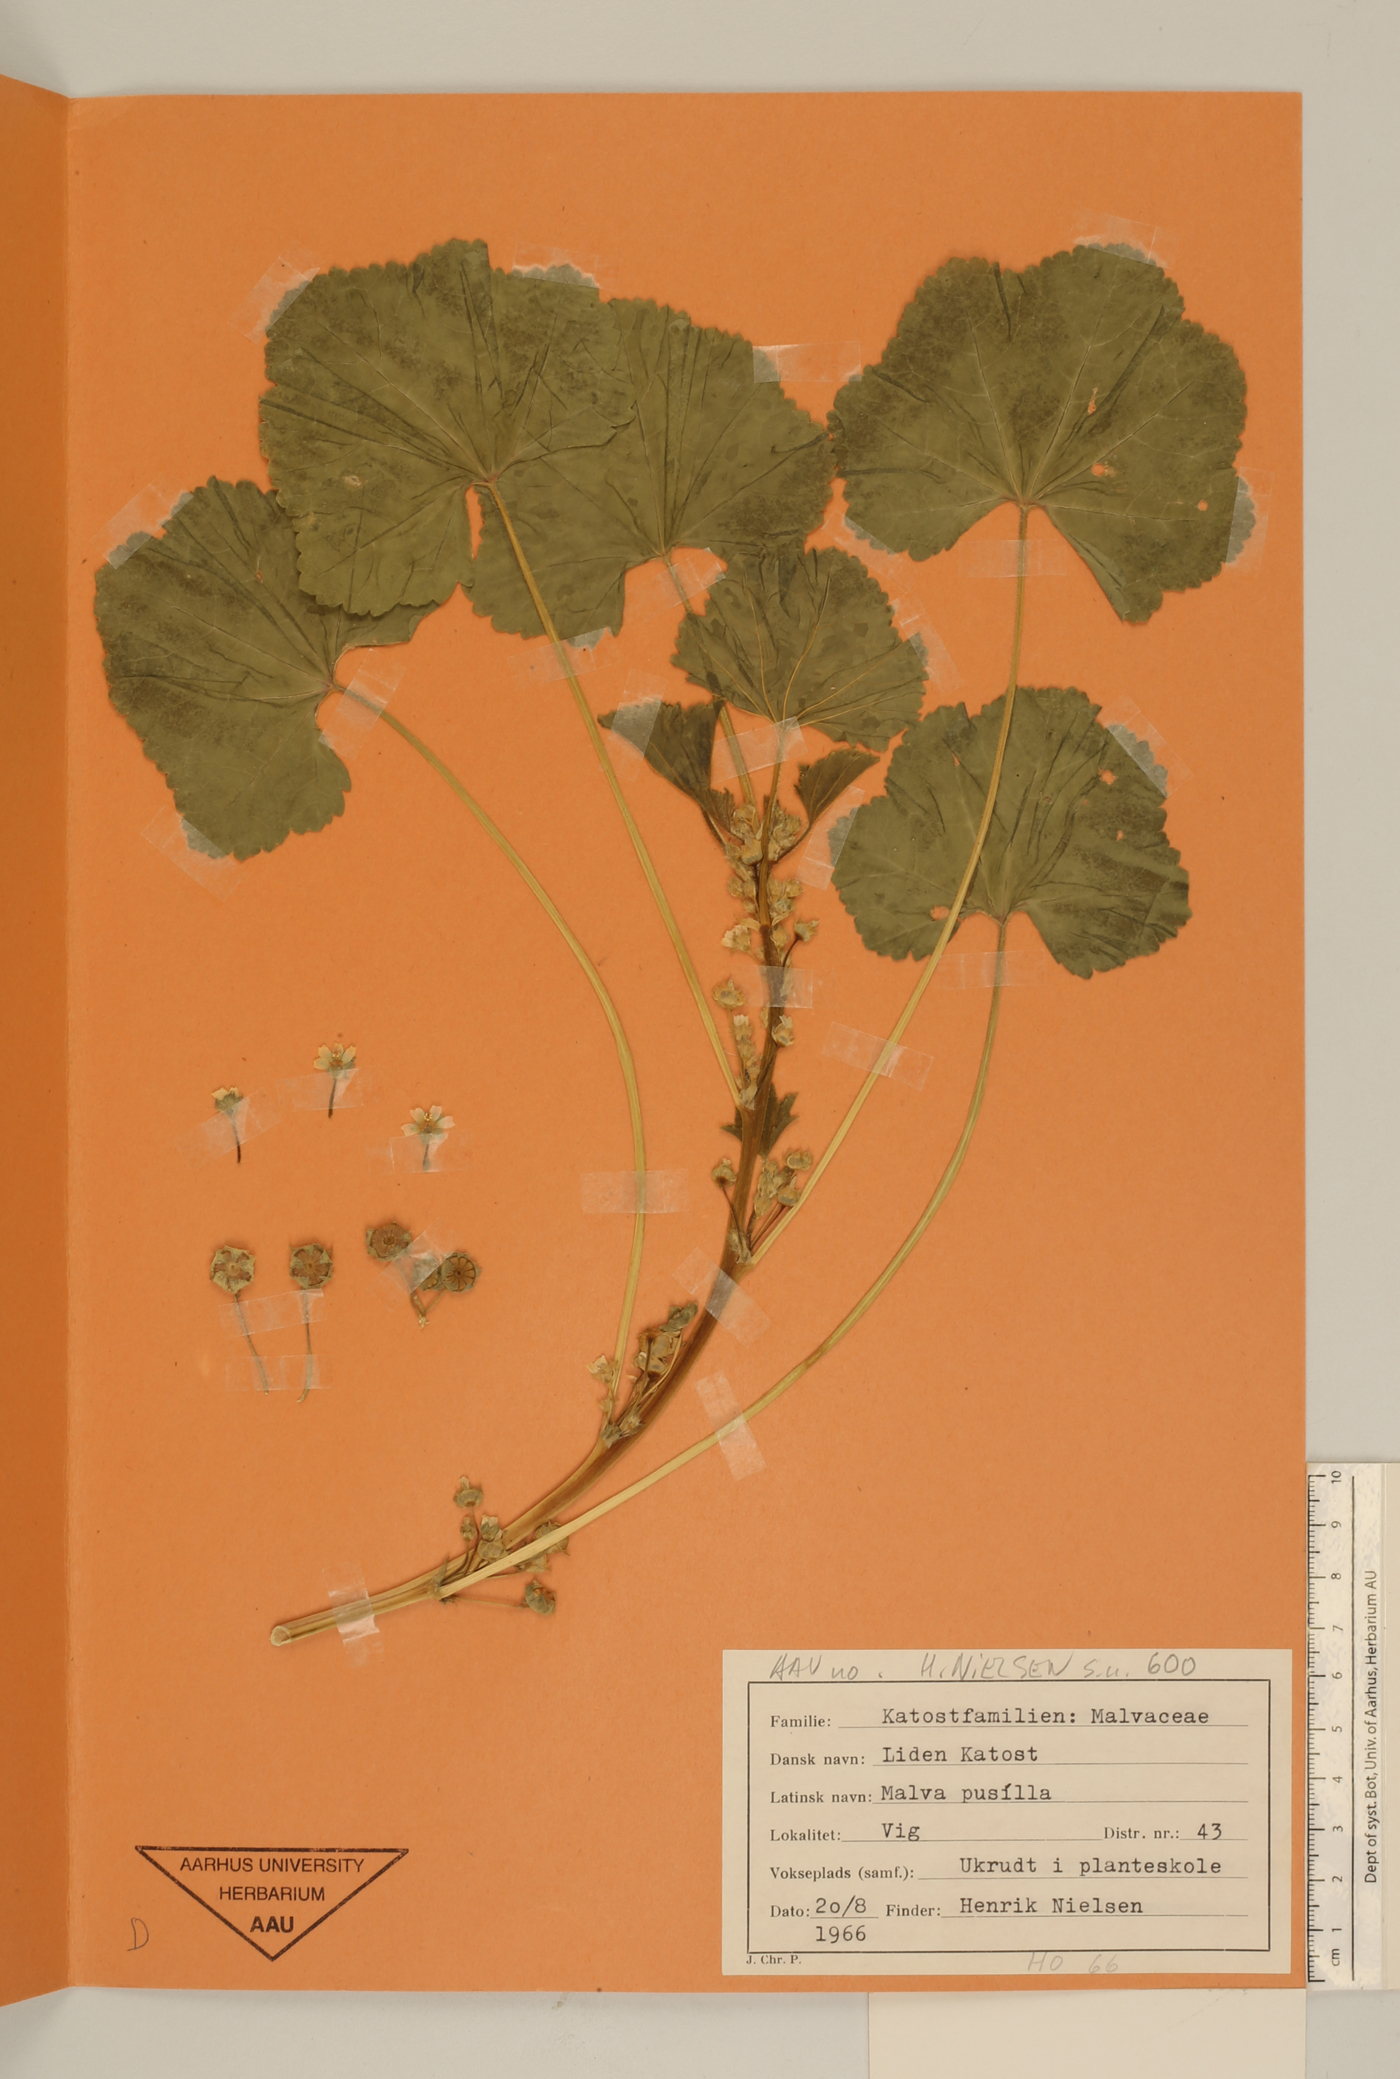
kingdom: Plantae
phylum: Tracheophyta
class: Magnoliopsida
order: Malvales
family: Malvaceae
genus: Malva
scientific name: Malva pusilla
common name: Small mallow
